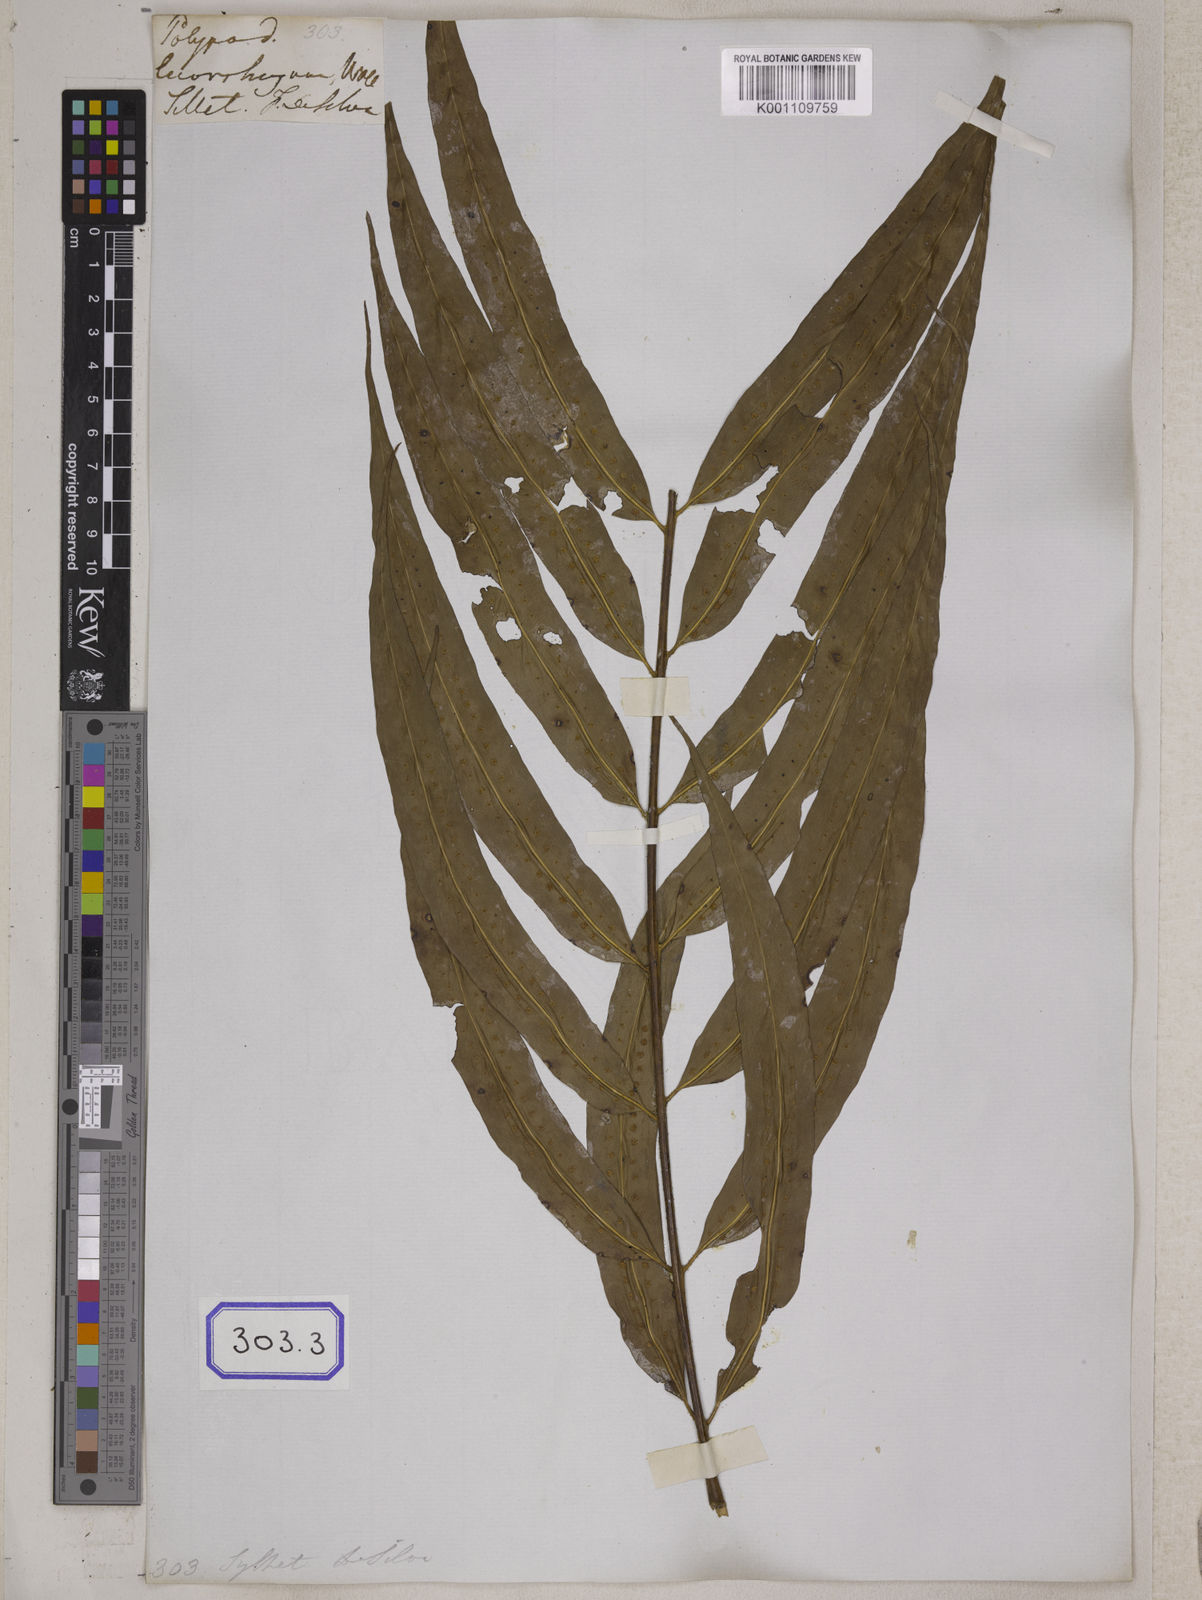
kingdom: Plantae
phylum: Tracheophyta
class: Polypodiopsida
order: Polypodiales
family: Polypodiaceae
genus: Microsorum
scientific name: Microsorum cuspidatum
